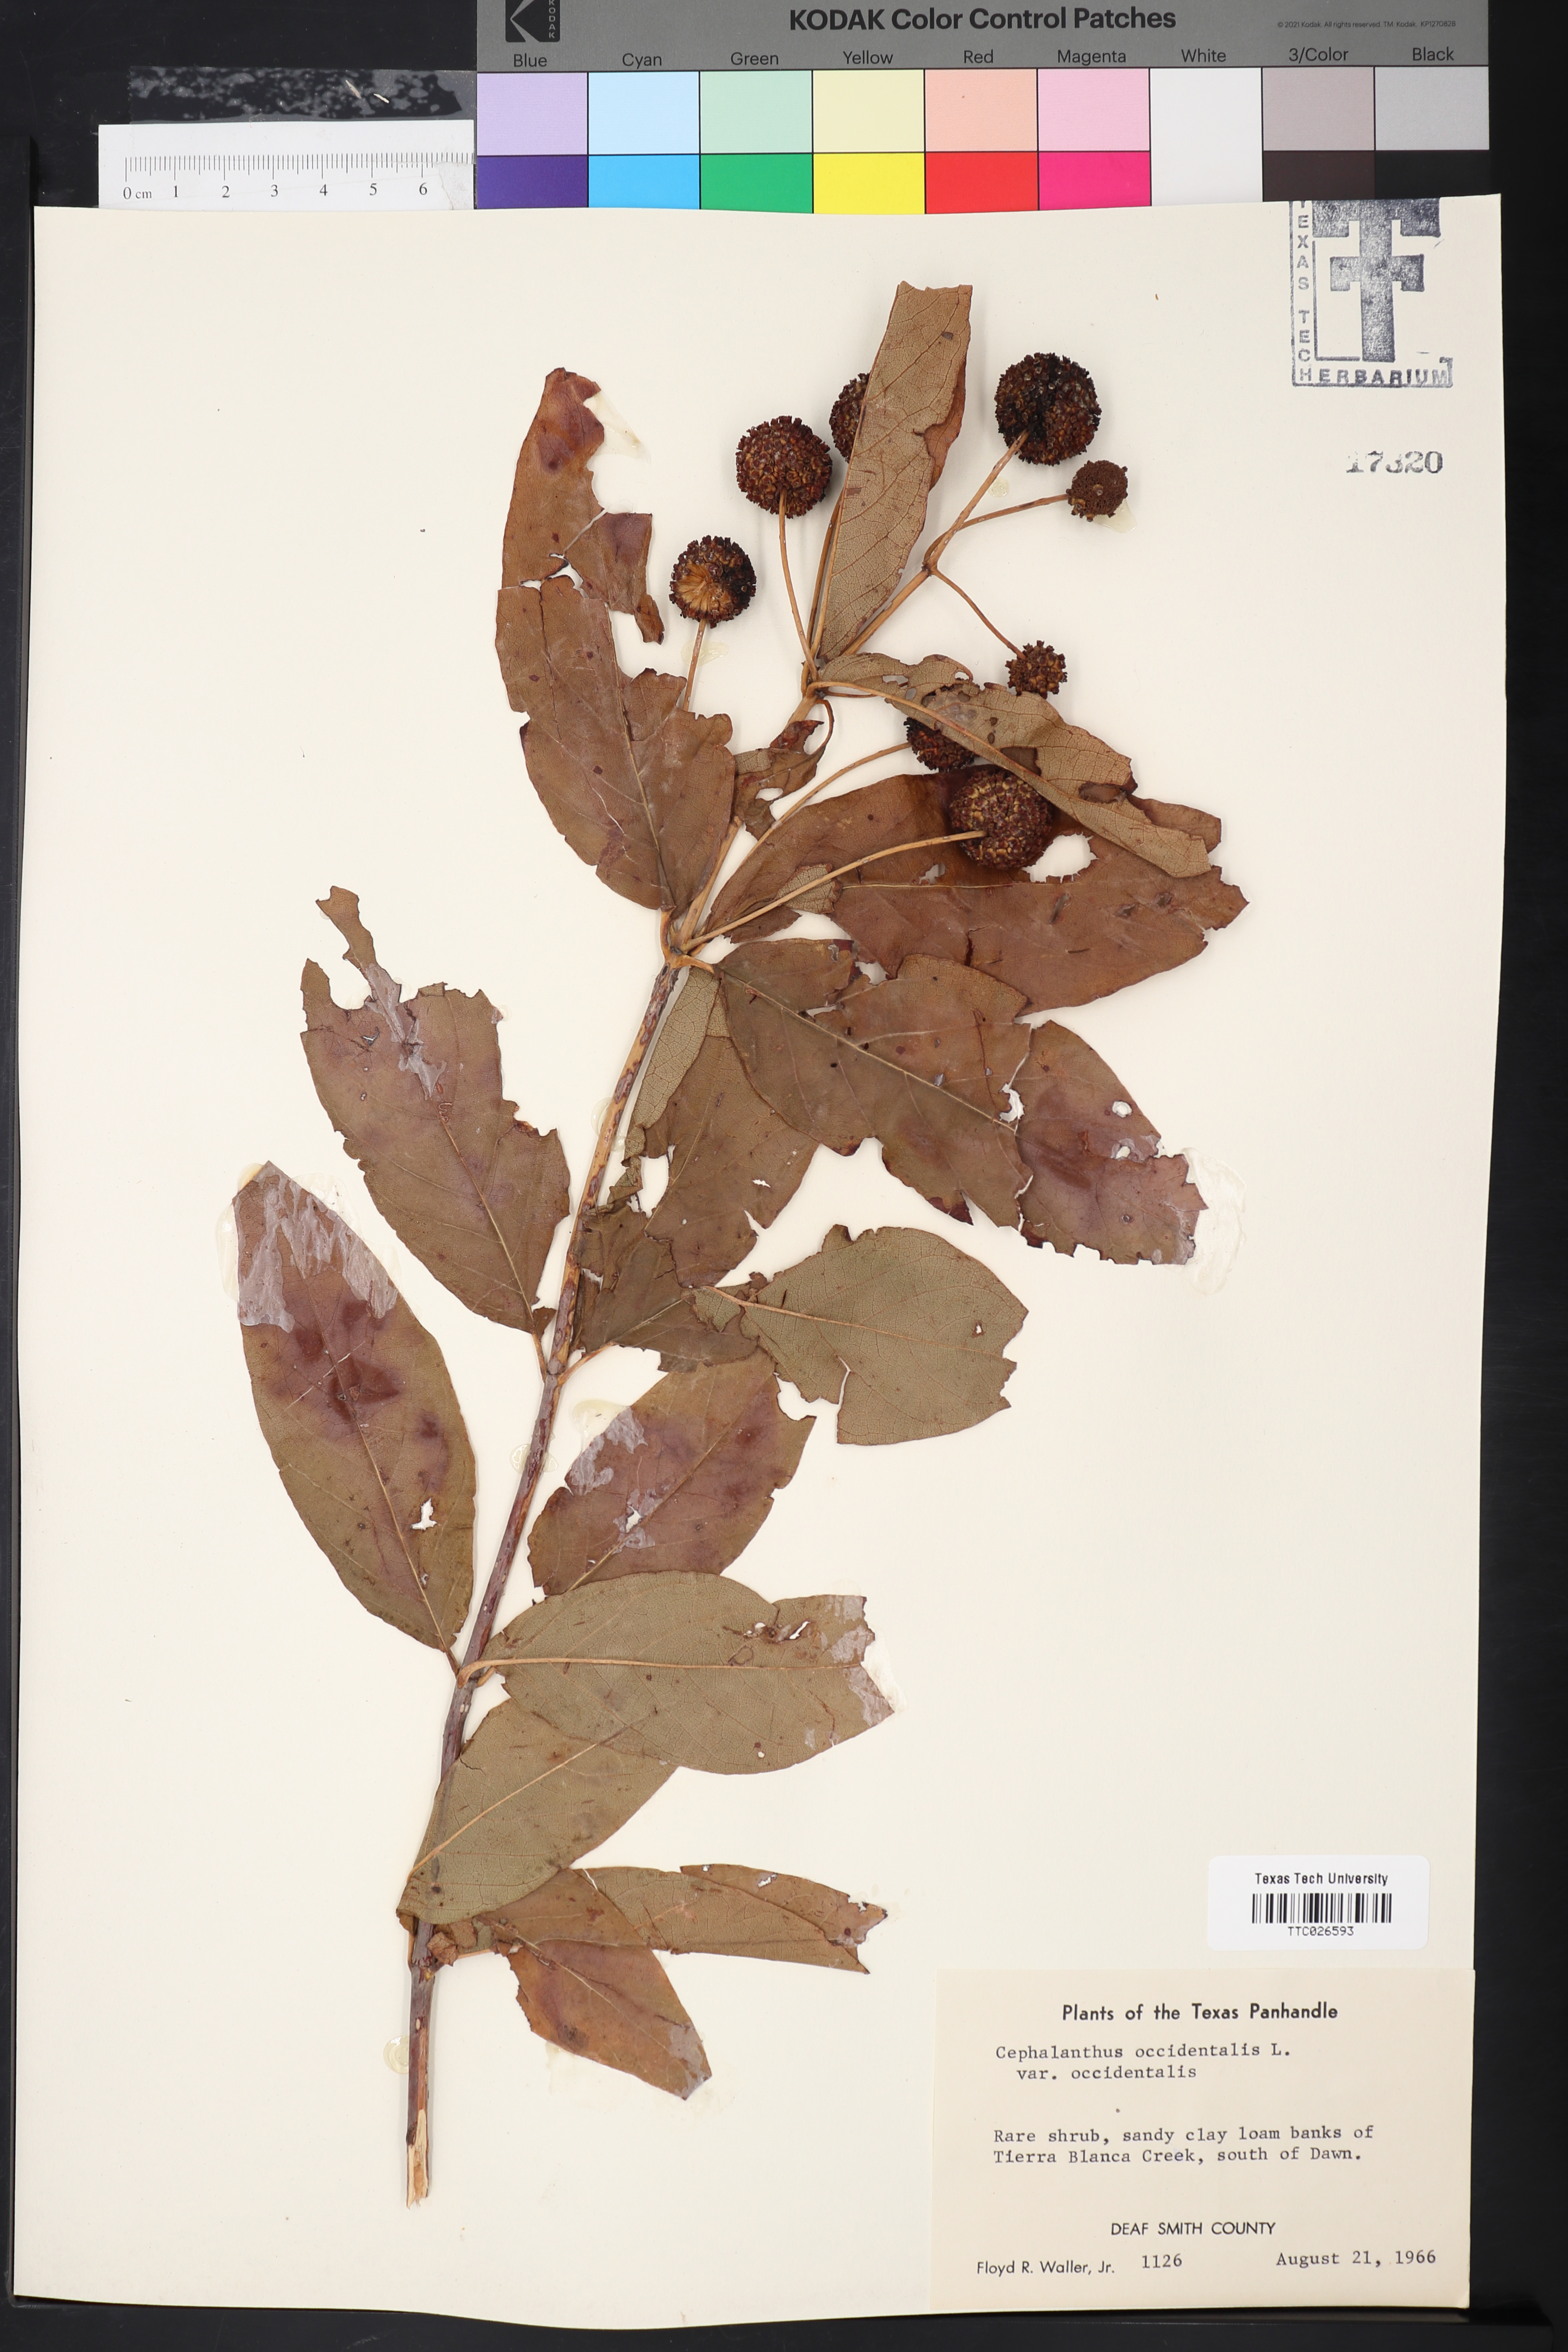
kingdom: Plantae
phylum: Tracheophyta
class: Magnoliopsida
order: Gentianales
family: Rubiaceae
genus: Cephalanthus
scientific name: Cephalanthus occidentalis
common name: Button-willow
